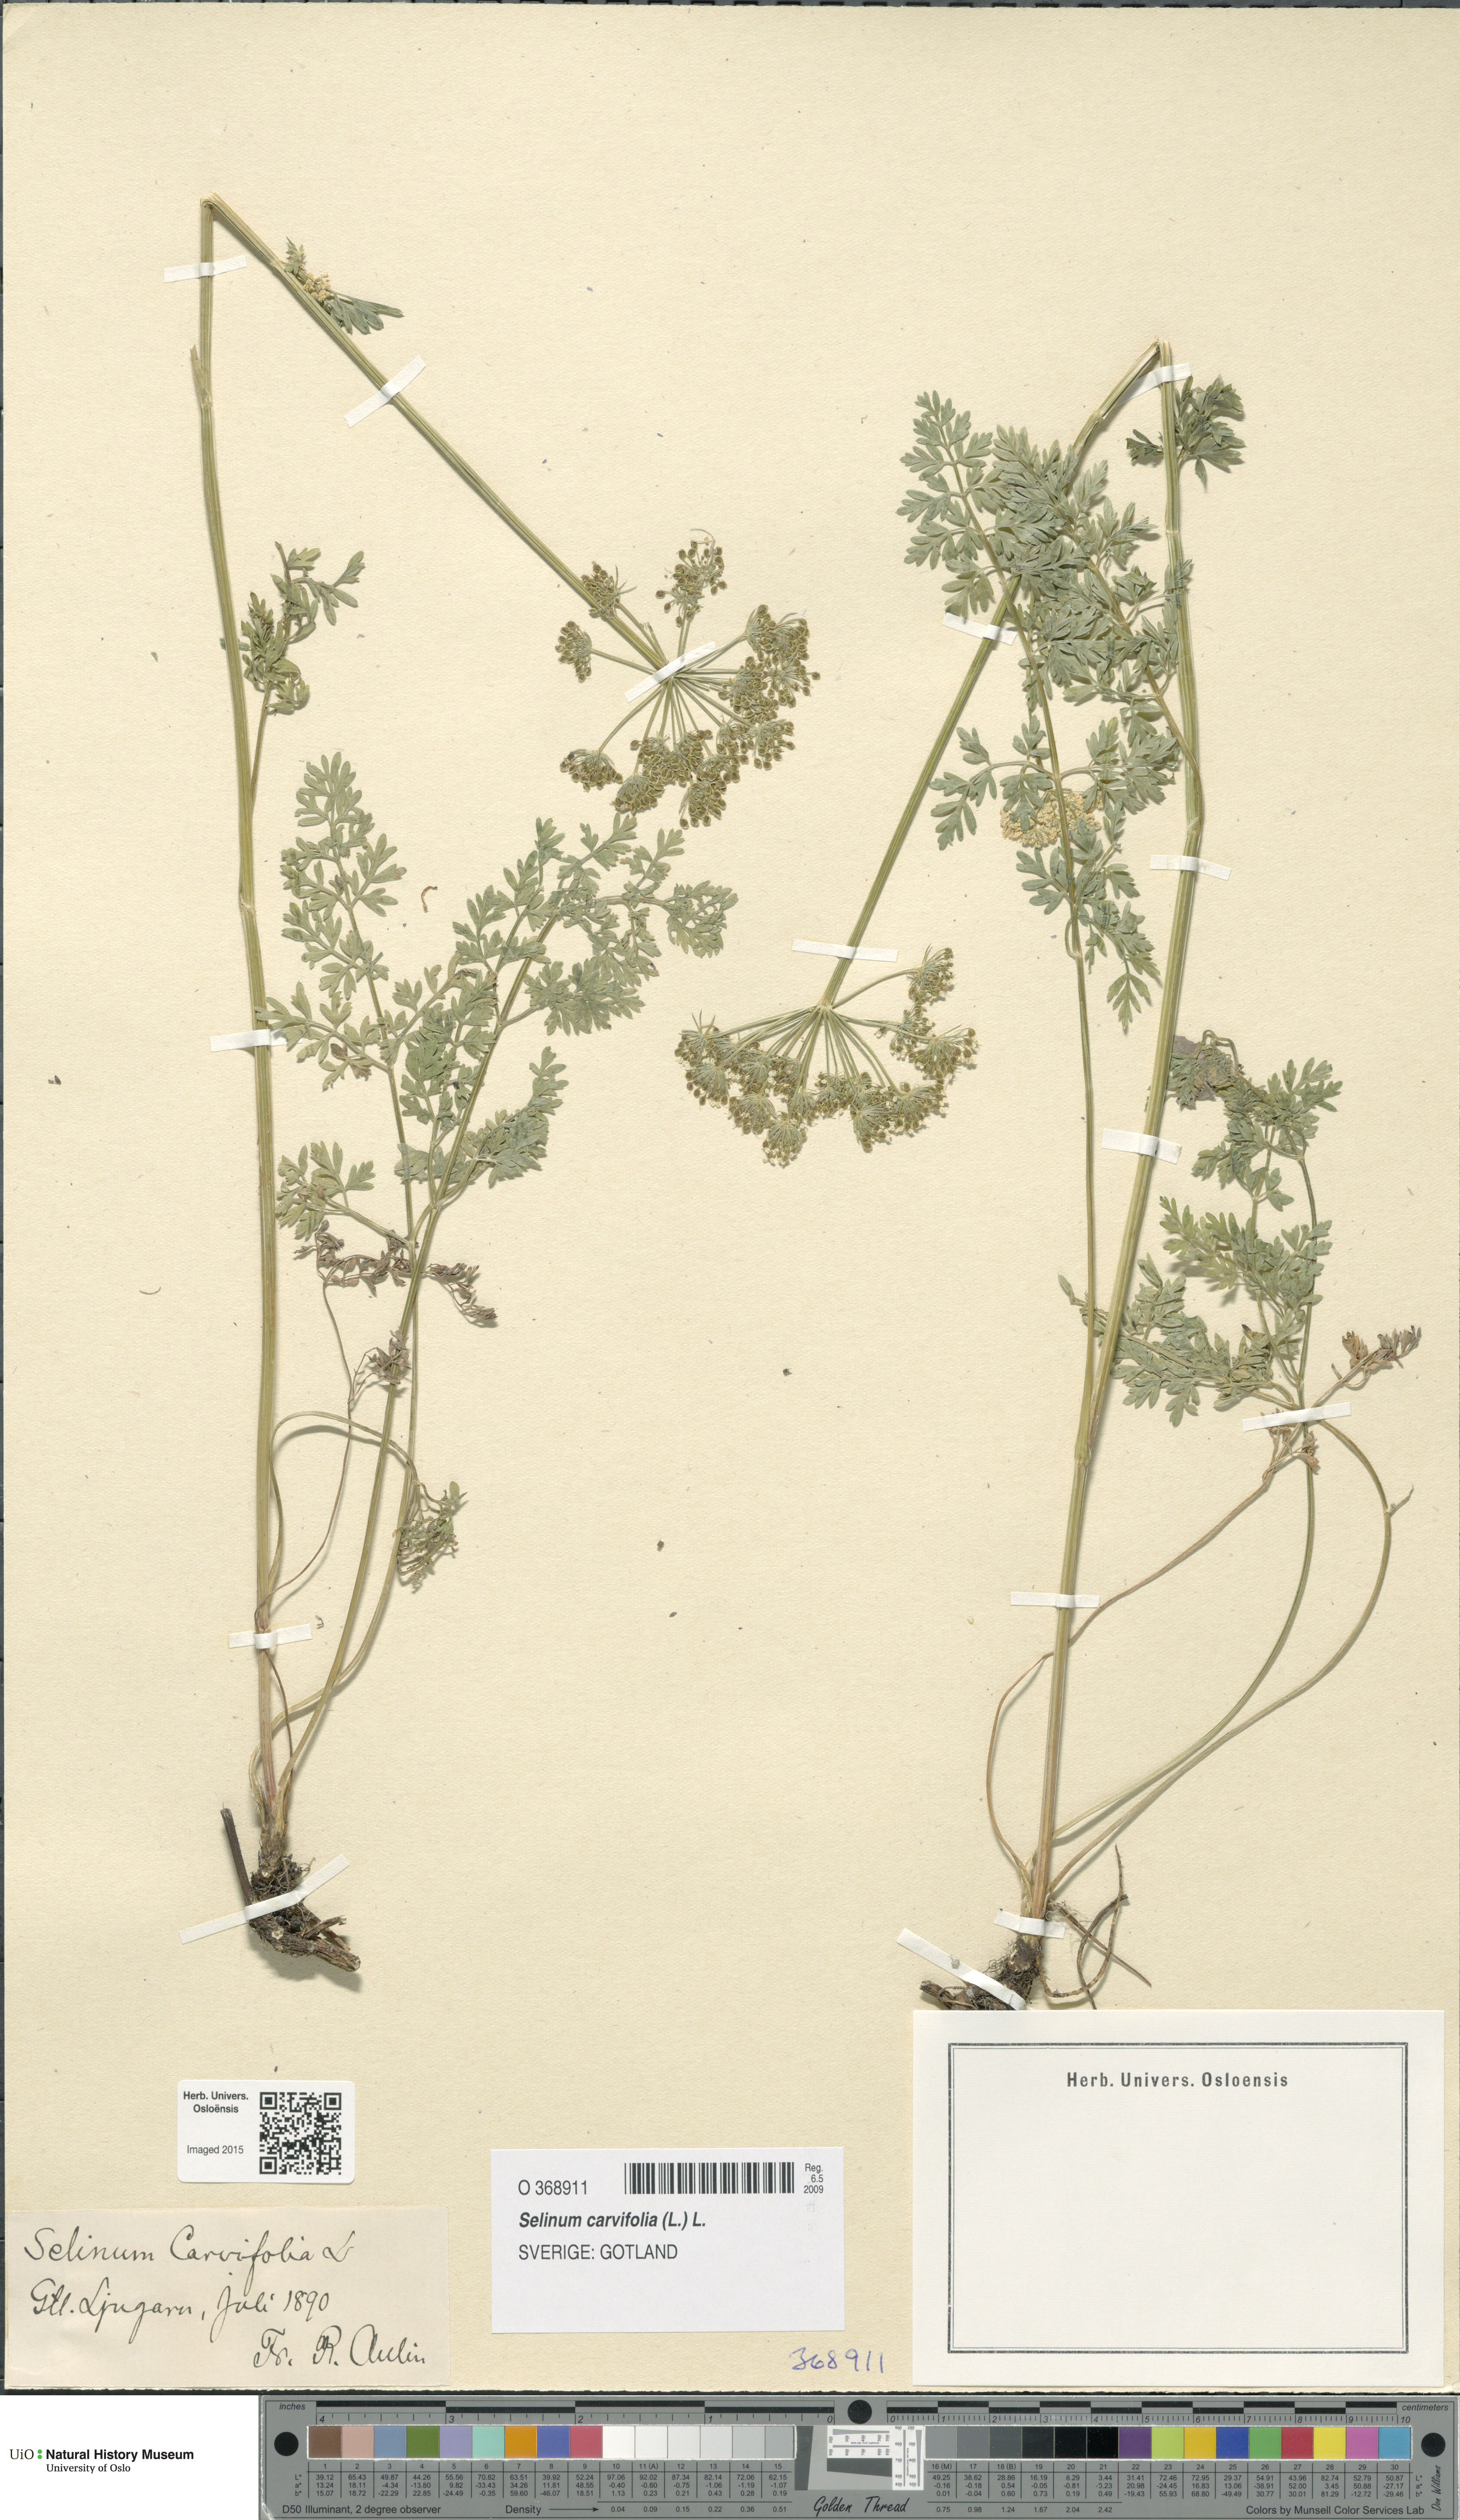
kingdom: Plantae
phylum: Tracheophyta
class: Magnoliopsida
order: Apiales
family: Apiaceae
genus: Selinum
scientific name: Selinum carvifolia
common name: Cambridge milk-parsley
